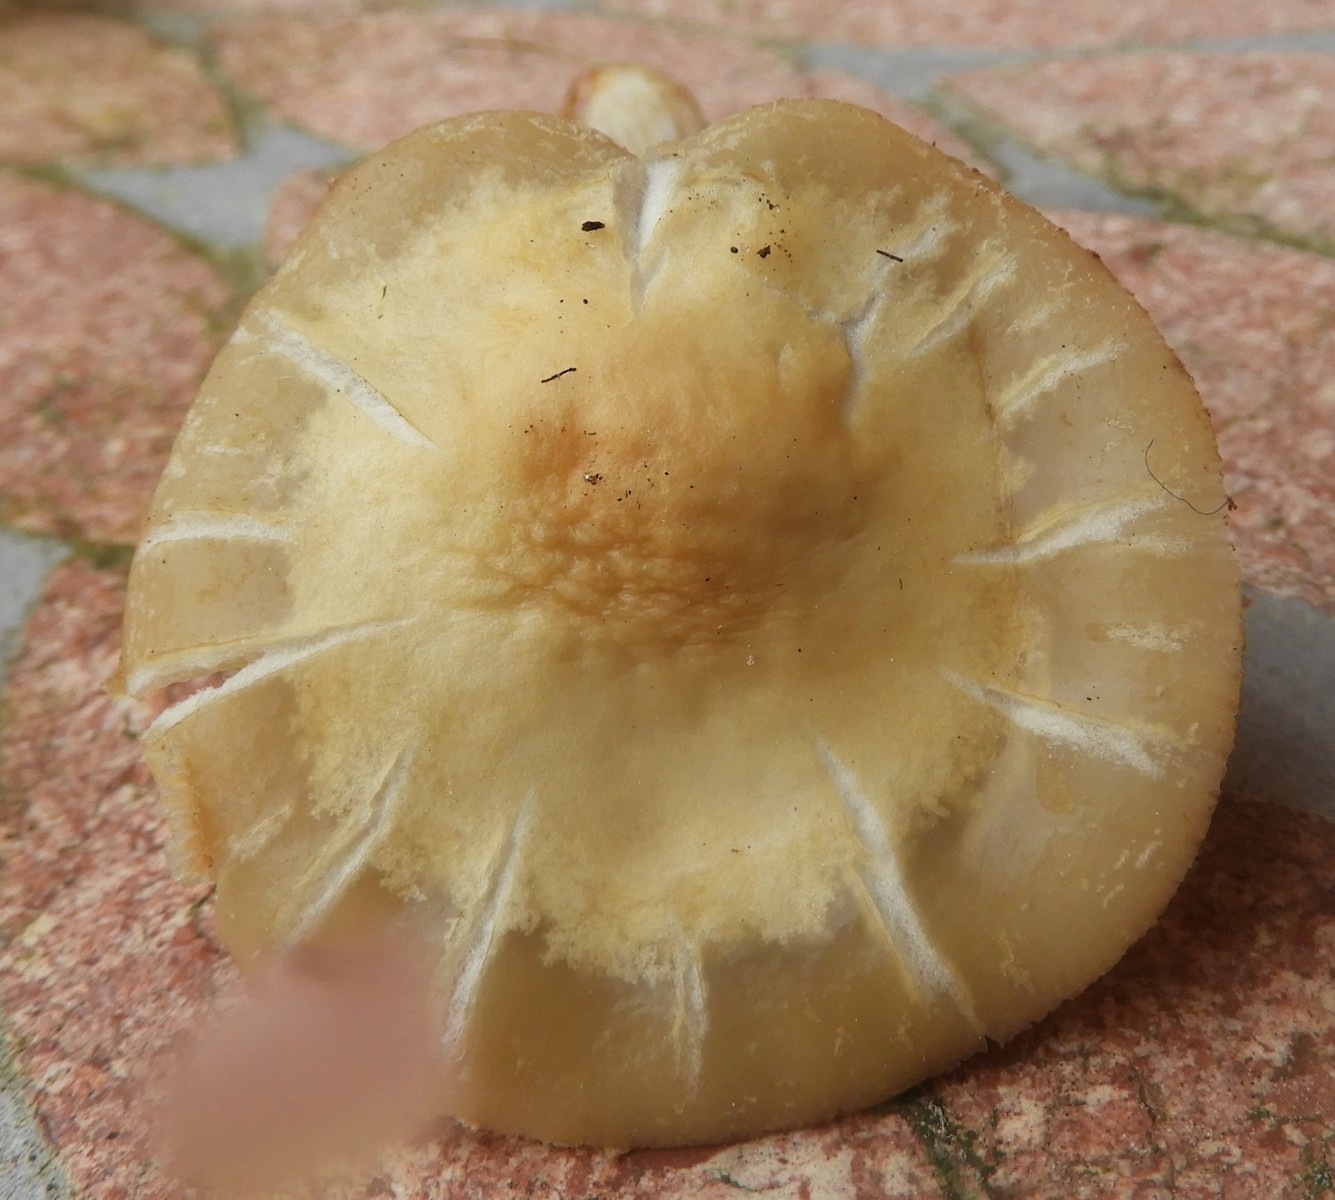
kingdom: Fungi
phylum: Basidiomycota
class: Agaricomycetes
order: Agaricales
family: Strophariaceae
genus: Agrocybe
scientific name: Agrocybe praecox
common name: tidlig agerhat
